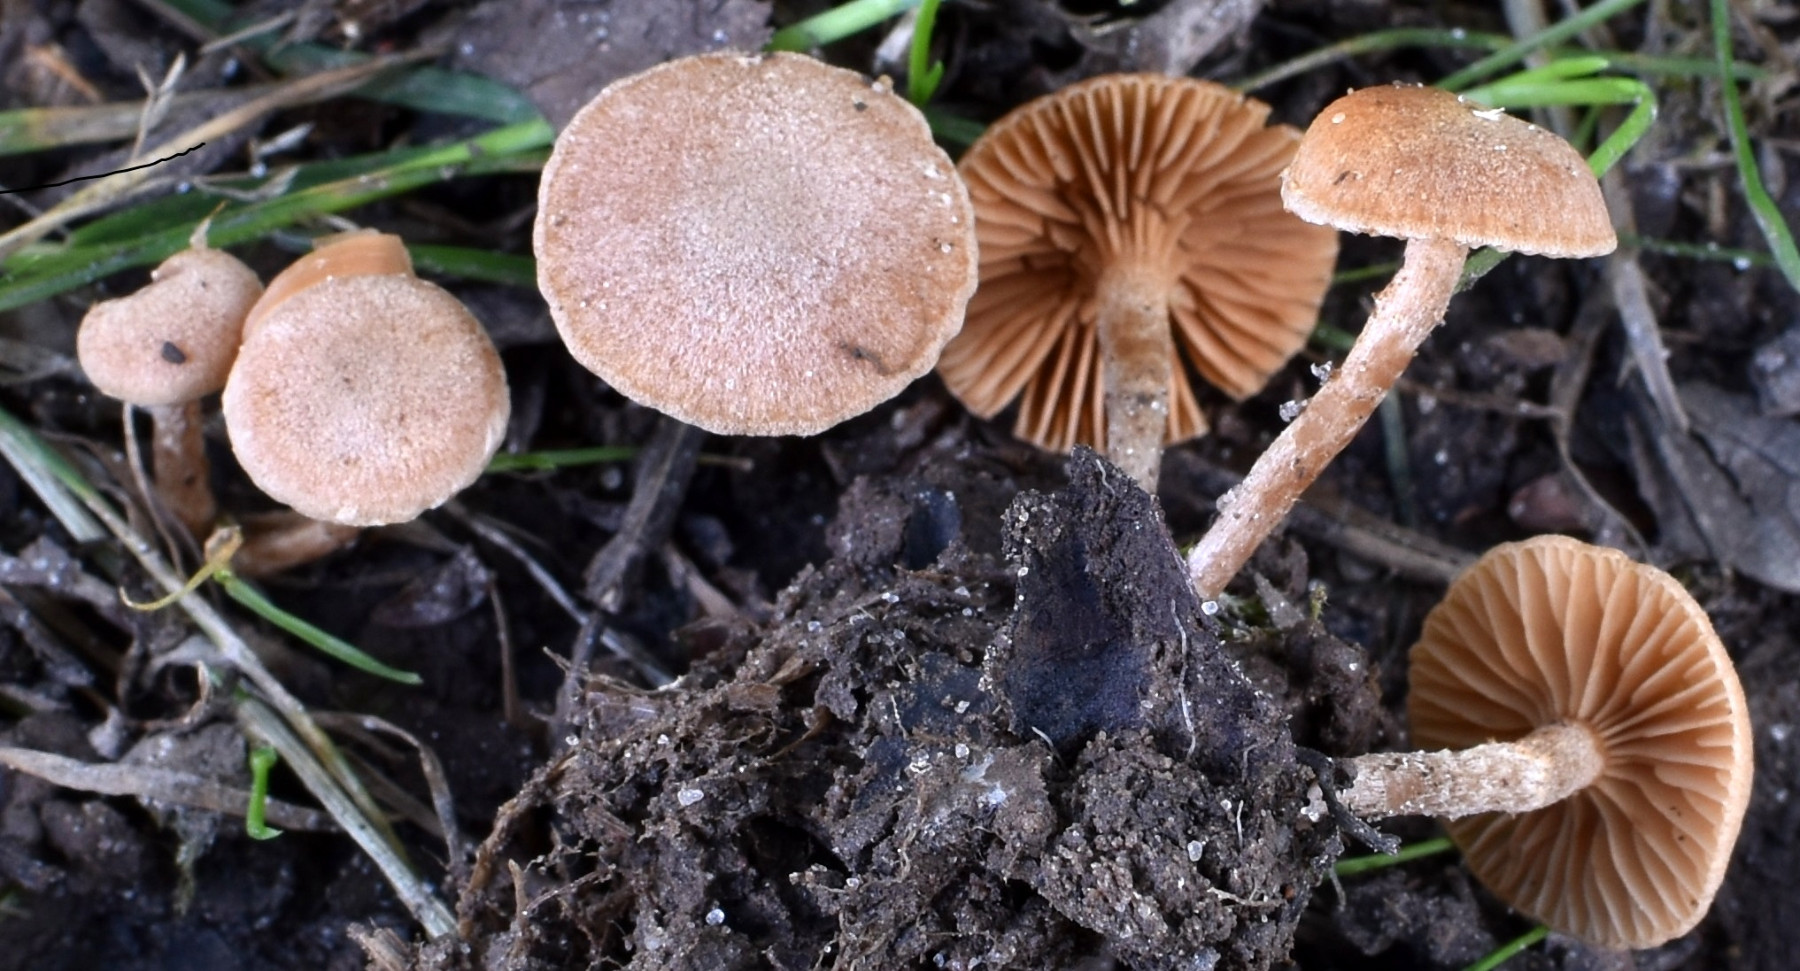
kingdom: Fungi
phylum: Basidiomycota
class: Agaricomycetes
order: Agaricales
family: Tubariaceae
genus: Tubaria
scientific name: Tubaria conspersa
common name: bleg fnughat
